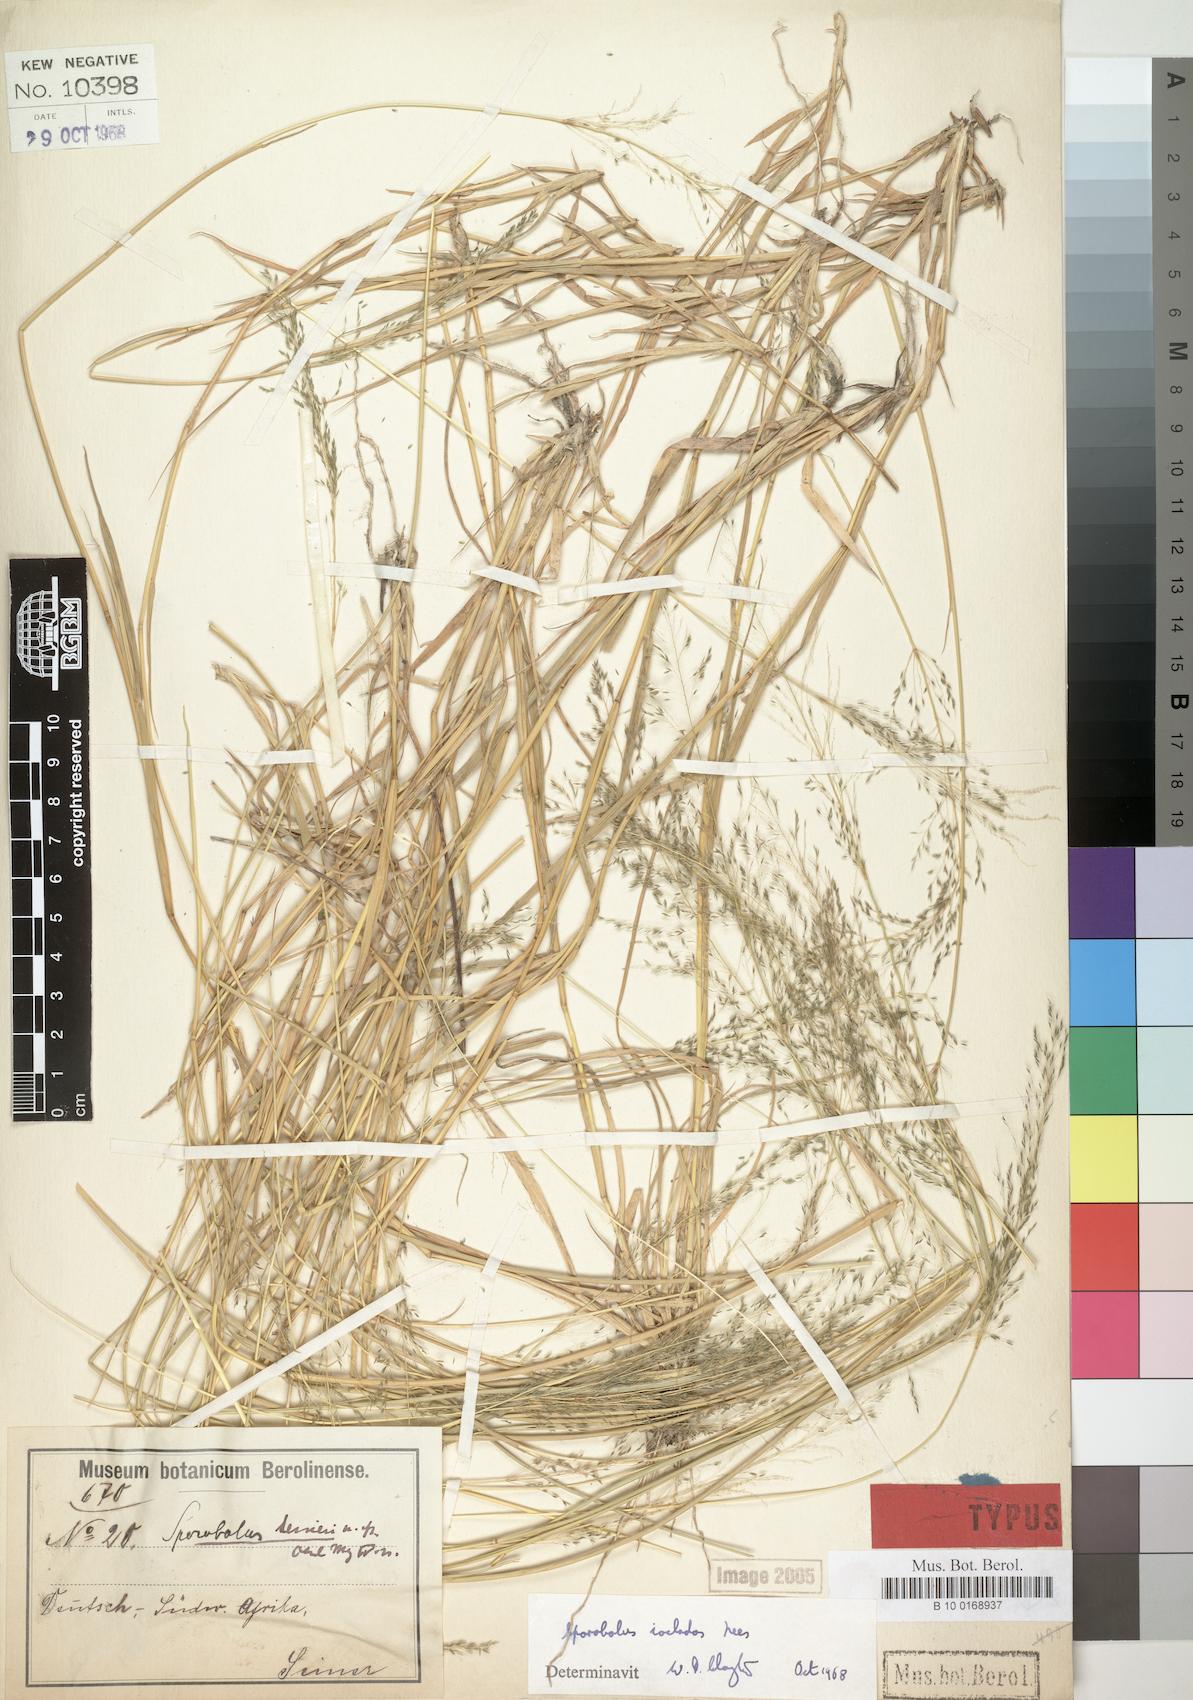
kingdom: Plantae
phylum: Tracheophyta
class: Liliopsida
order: Poales
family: Poaceae
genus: Sporobolus
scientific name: Sporobolus ioclados
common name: Pan dropseed
